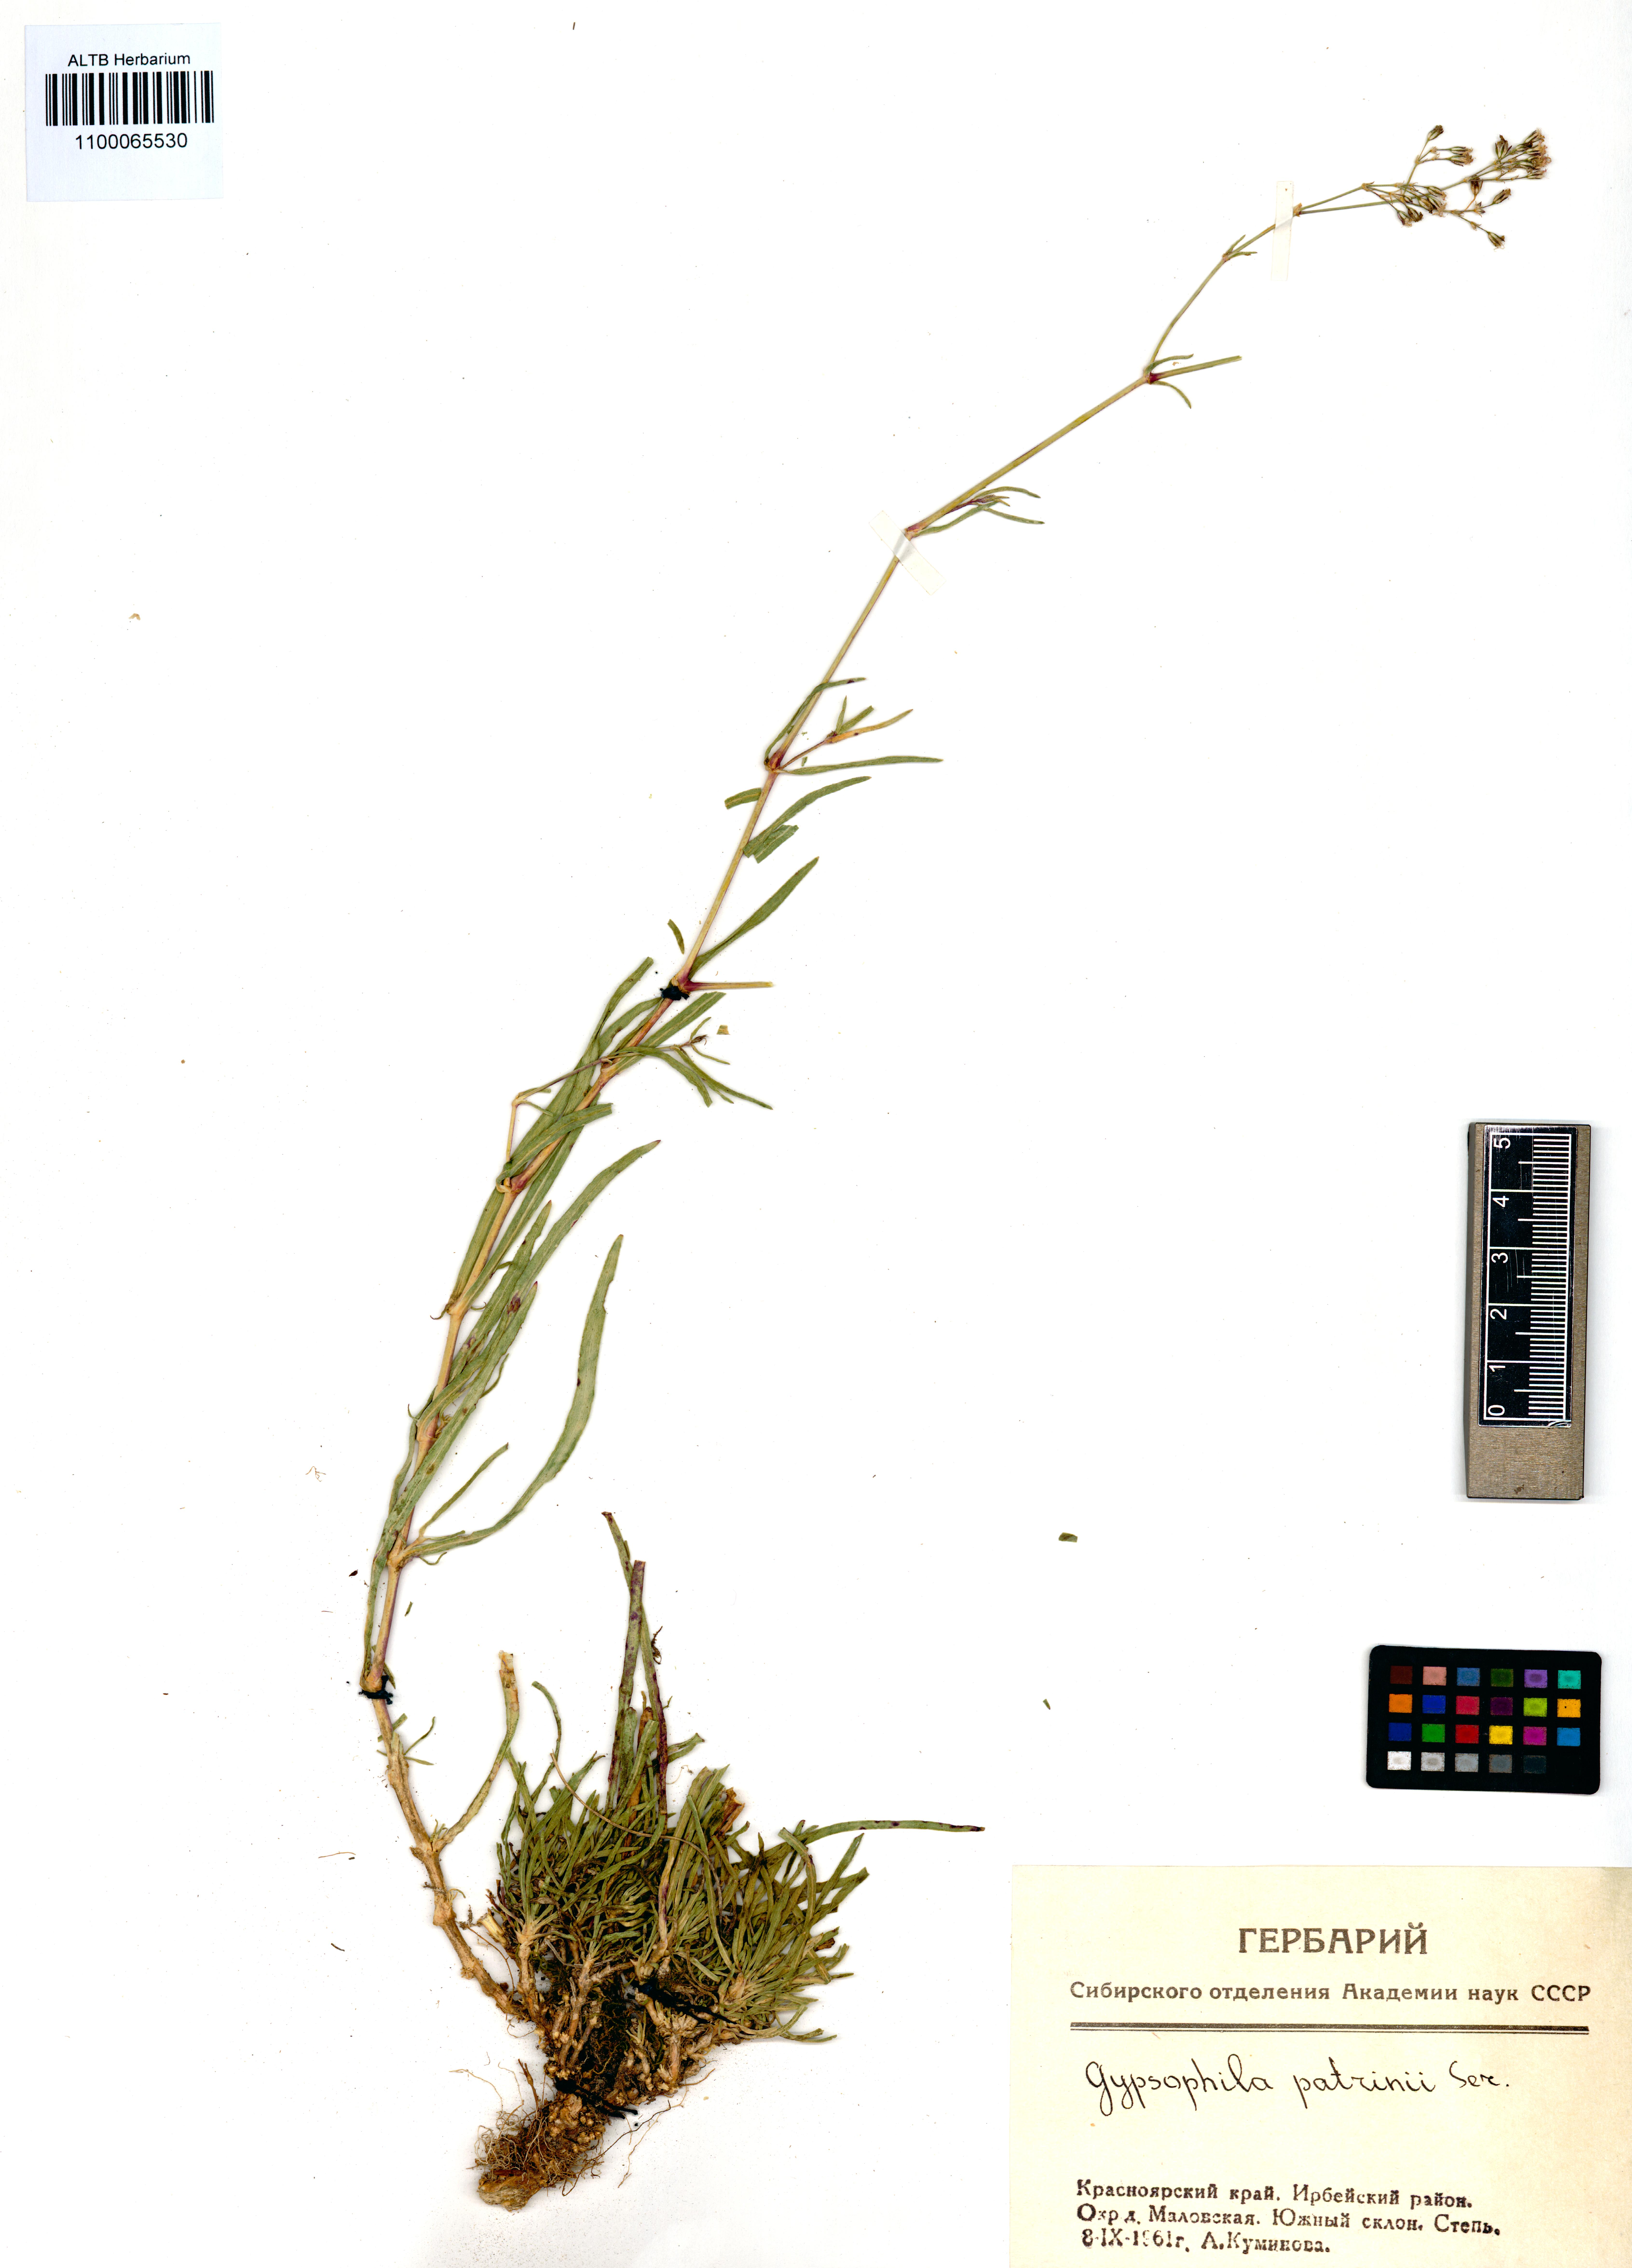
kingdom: Plantae
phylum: Tracheophyta
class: Magnoliopsida
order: Caryophyllales
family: Caryophyllaceae
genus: Gypsophila
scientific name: Gypsophila patrinii
